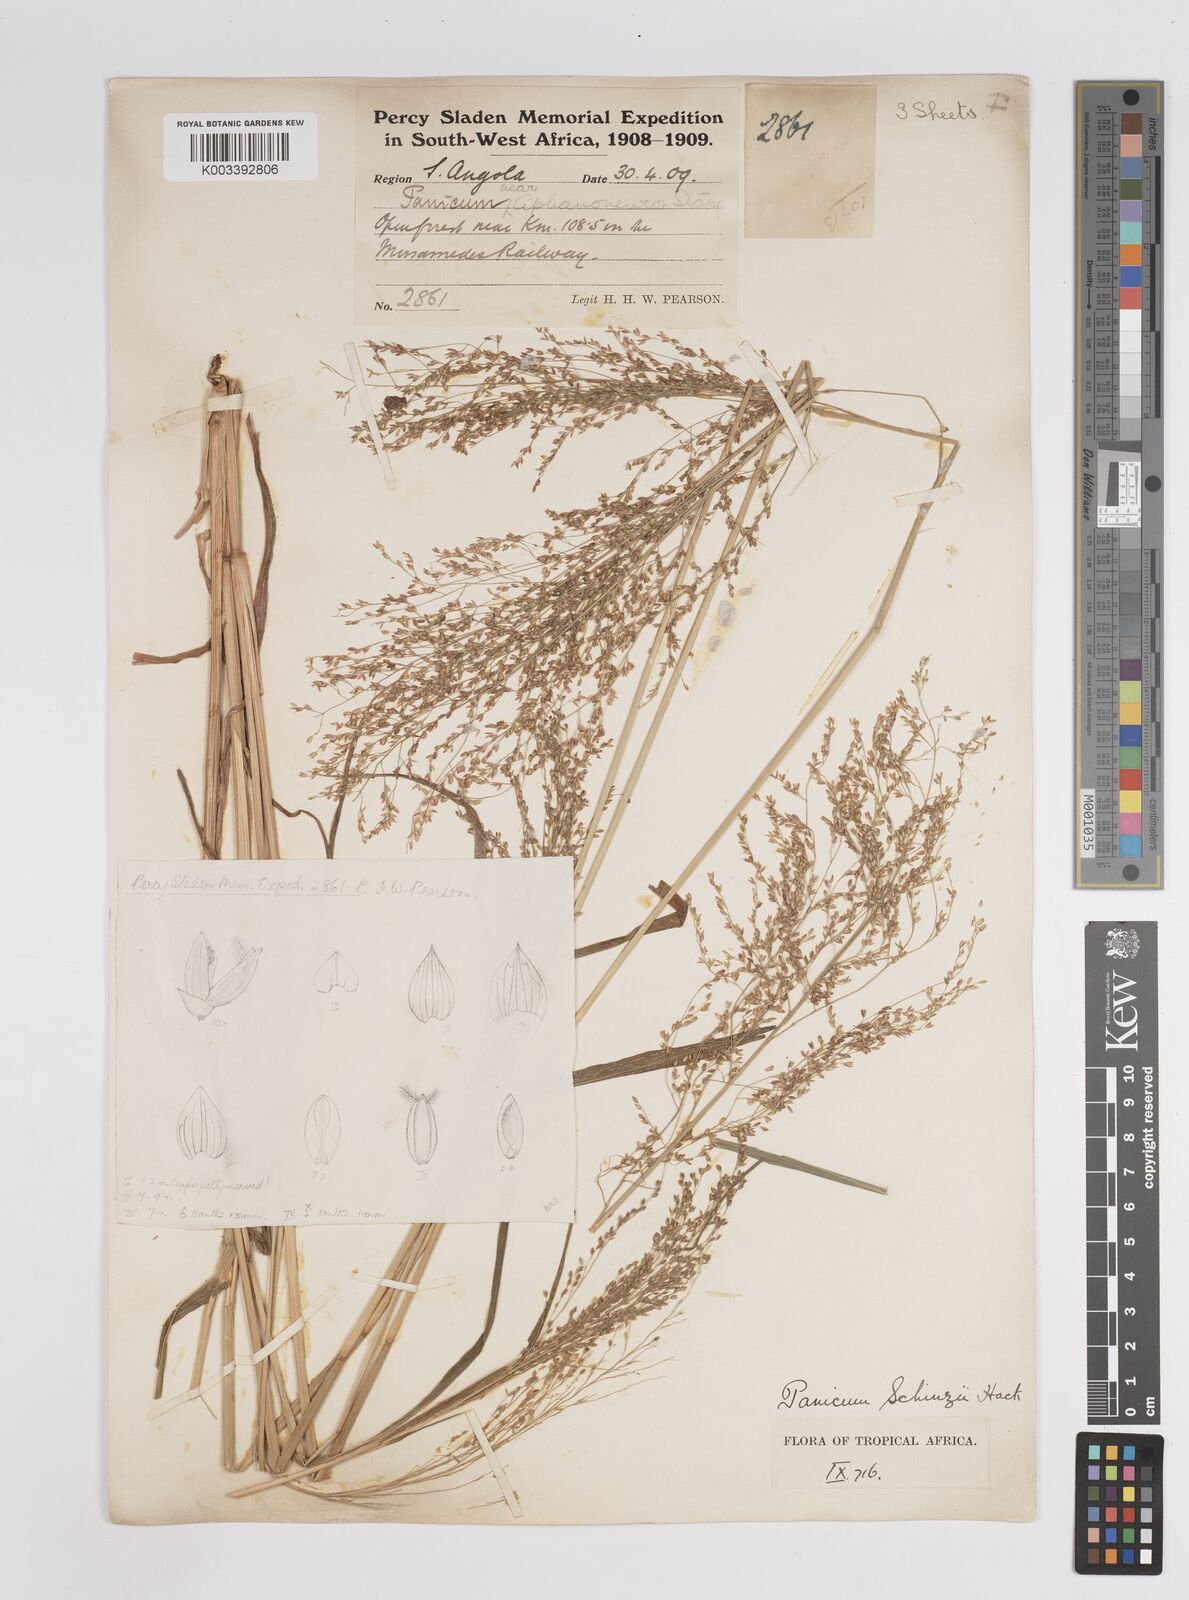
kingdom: Plantae
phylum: Tracheophyta
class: Liliopsida
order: Poales
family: Poaceae
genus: Panicum
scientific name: Panicum schinzii
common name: Sweet grass
